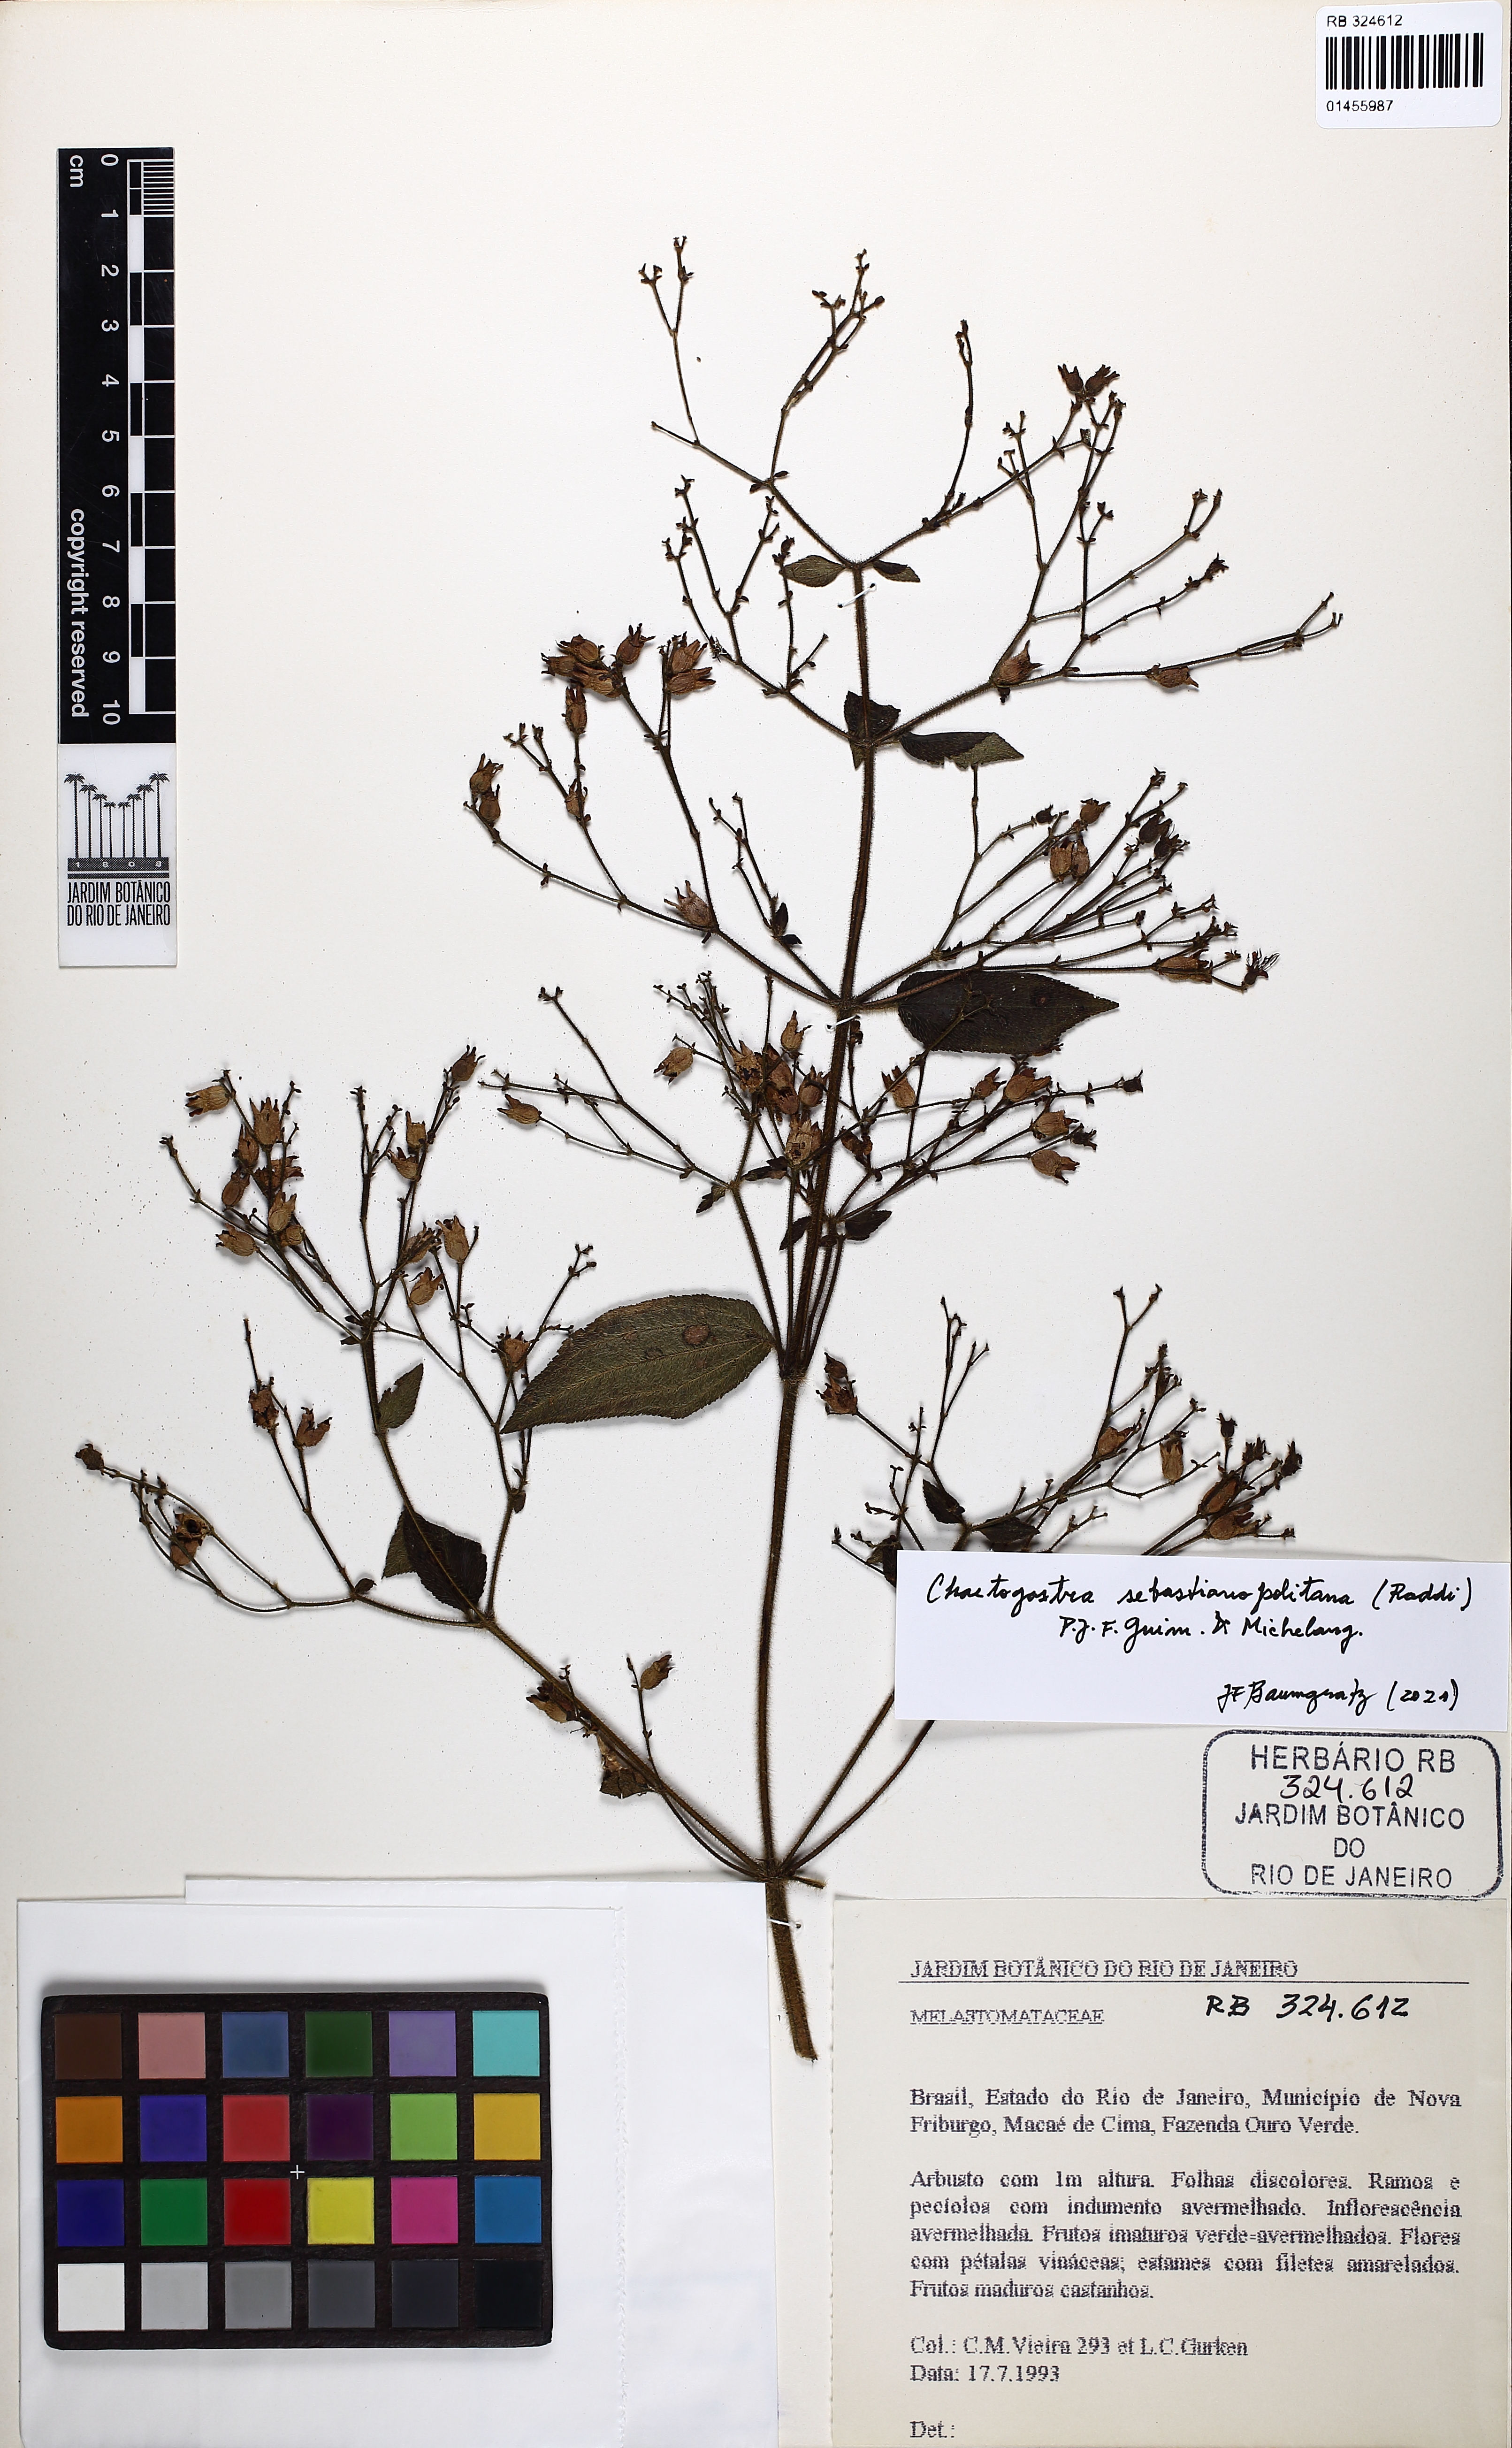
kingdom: Plantae
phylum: Tracheophyta
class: Magnoliopsida
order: Myrtales
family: Melastomataceae
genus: Chaetogastra
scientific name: Chaetogastra sebastianopolitana
